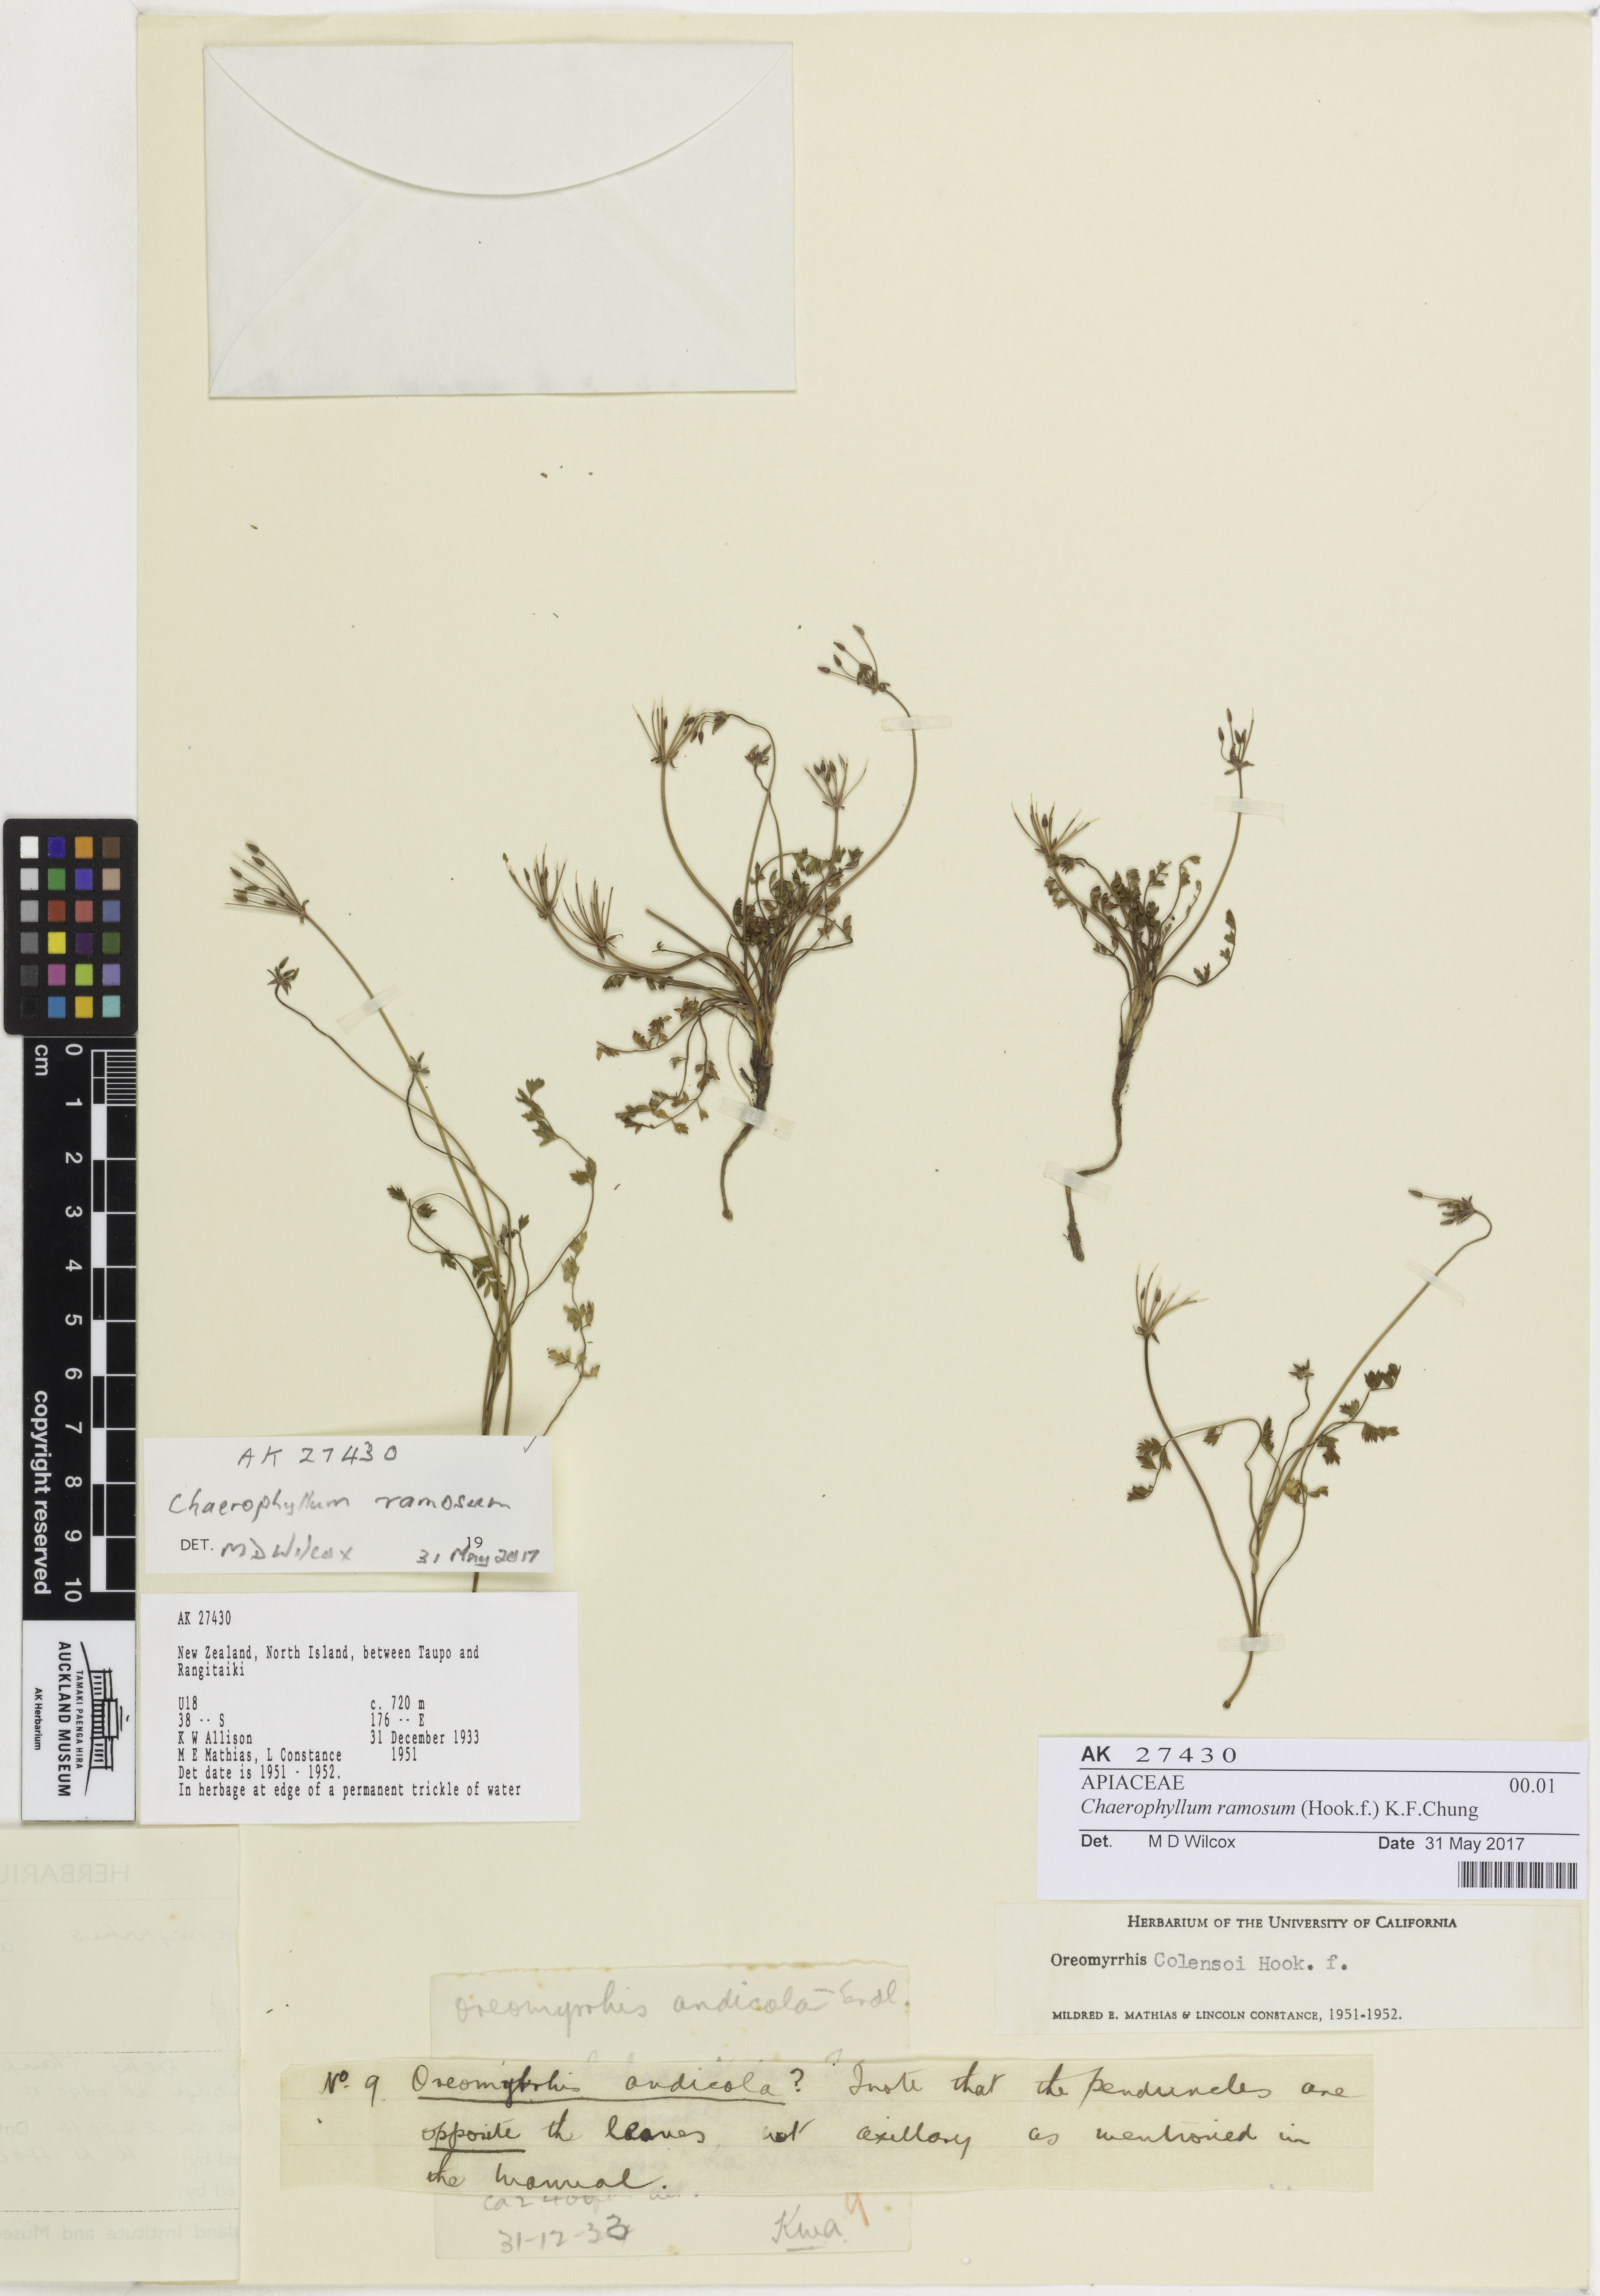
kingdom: Plantae
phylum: Tracheophyta
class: Magnoliopsida
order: Apiales
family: Apiaceae
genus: Chaerophyllum
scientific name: Chaerophyllum ramosum
